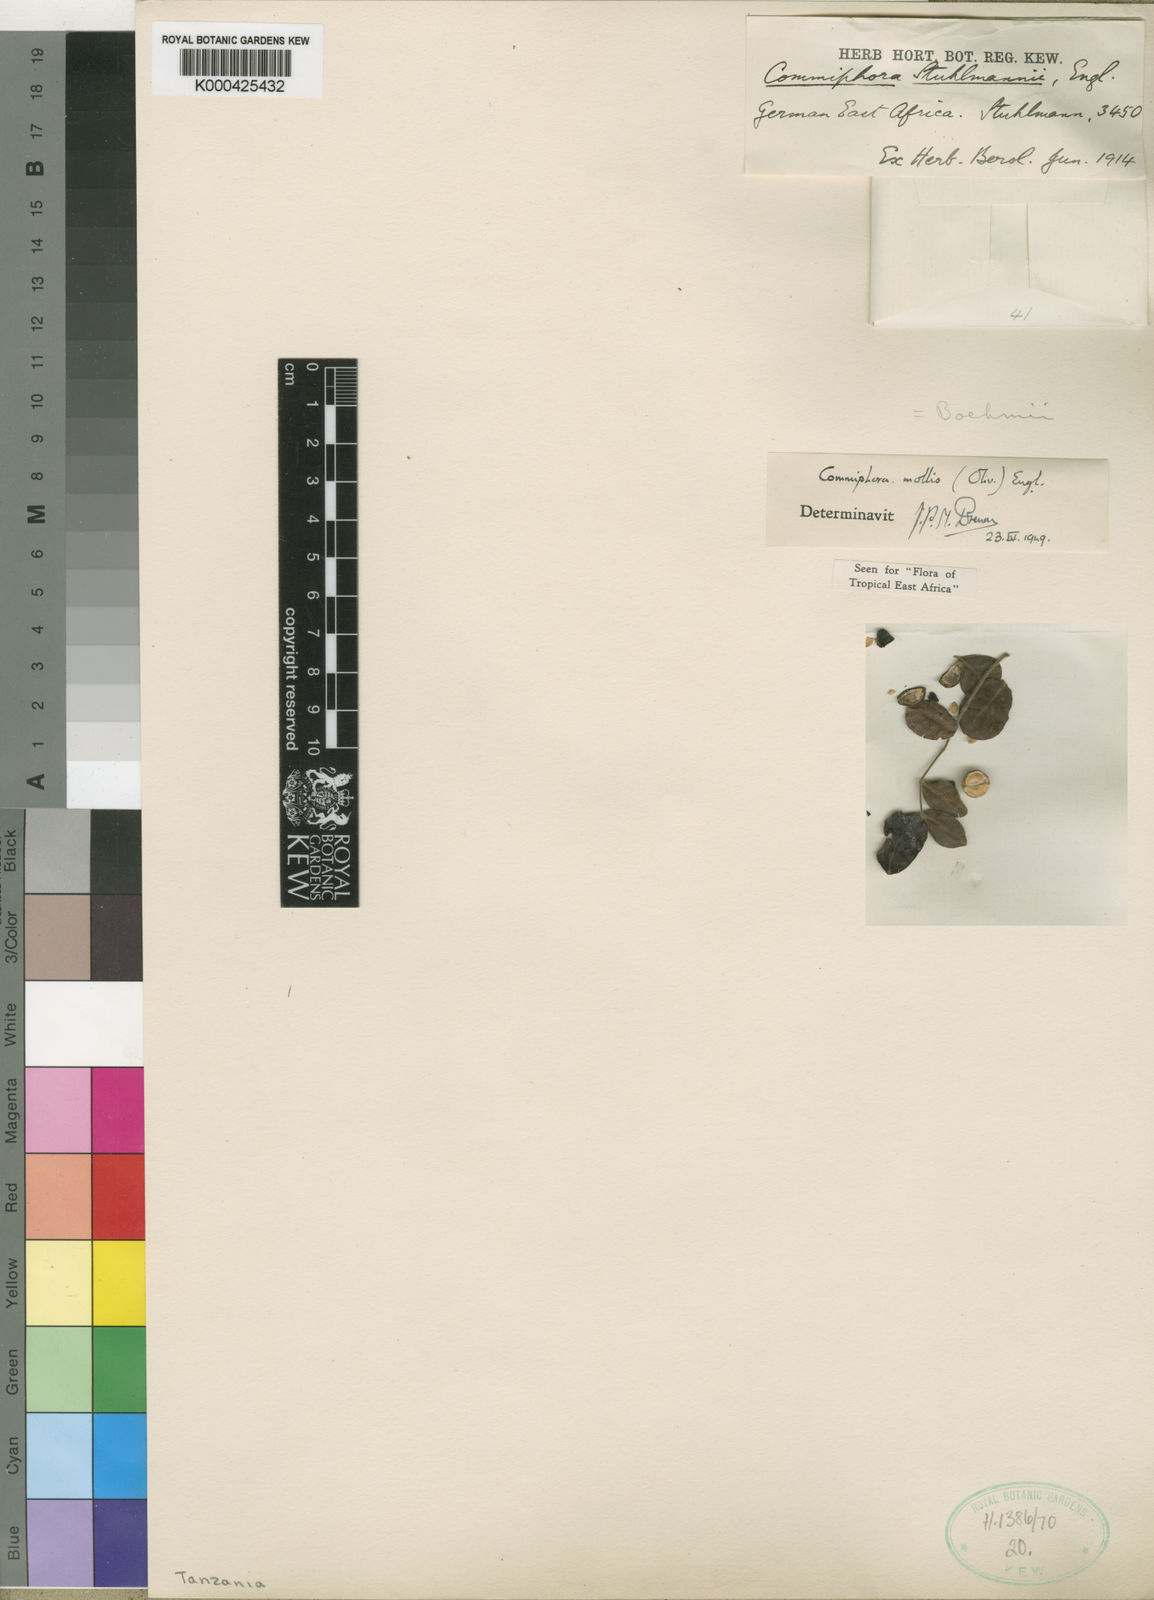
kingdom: Plantae
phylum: Tracheophyta
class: Magnoliopsida
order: Sapindales
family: Burseraceae
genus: Commiphora
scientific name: Commiphora mollis
